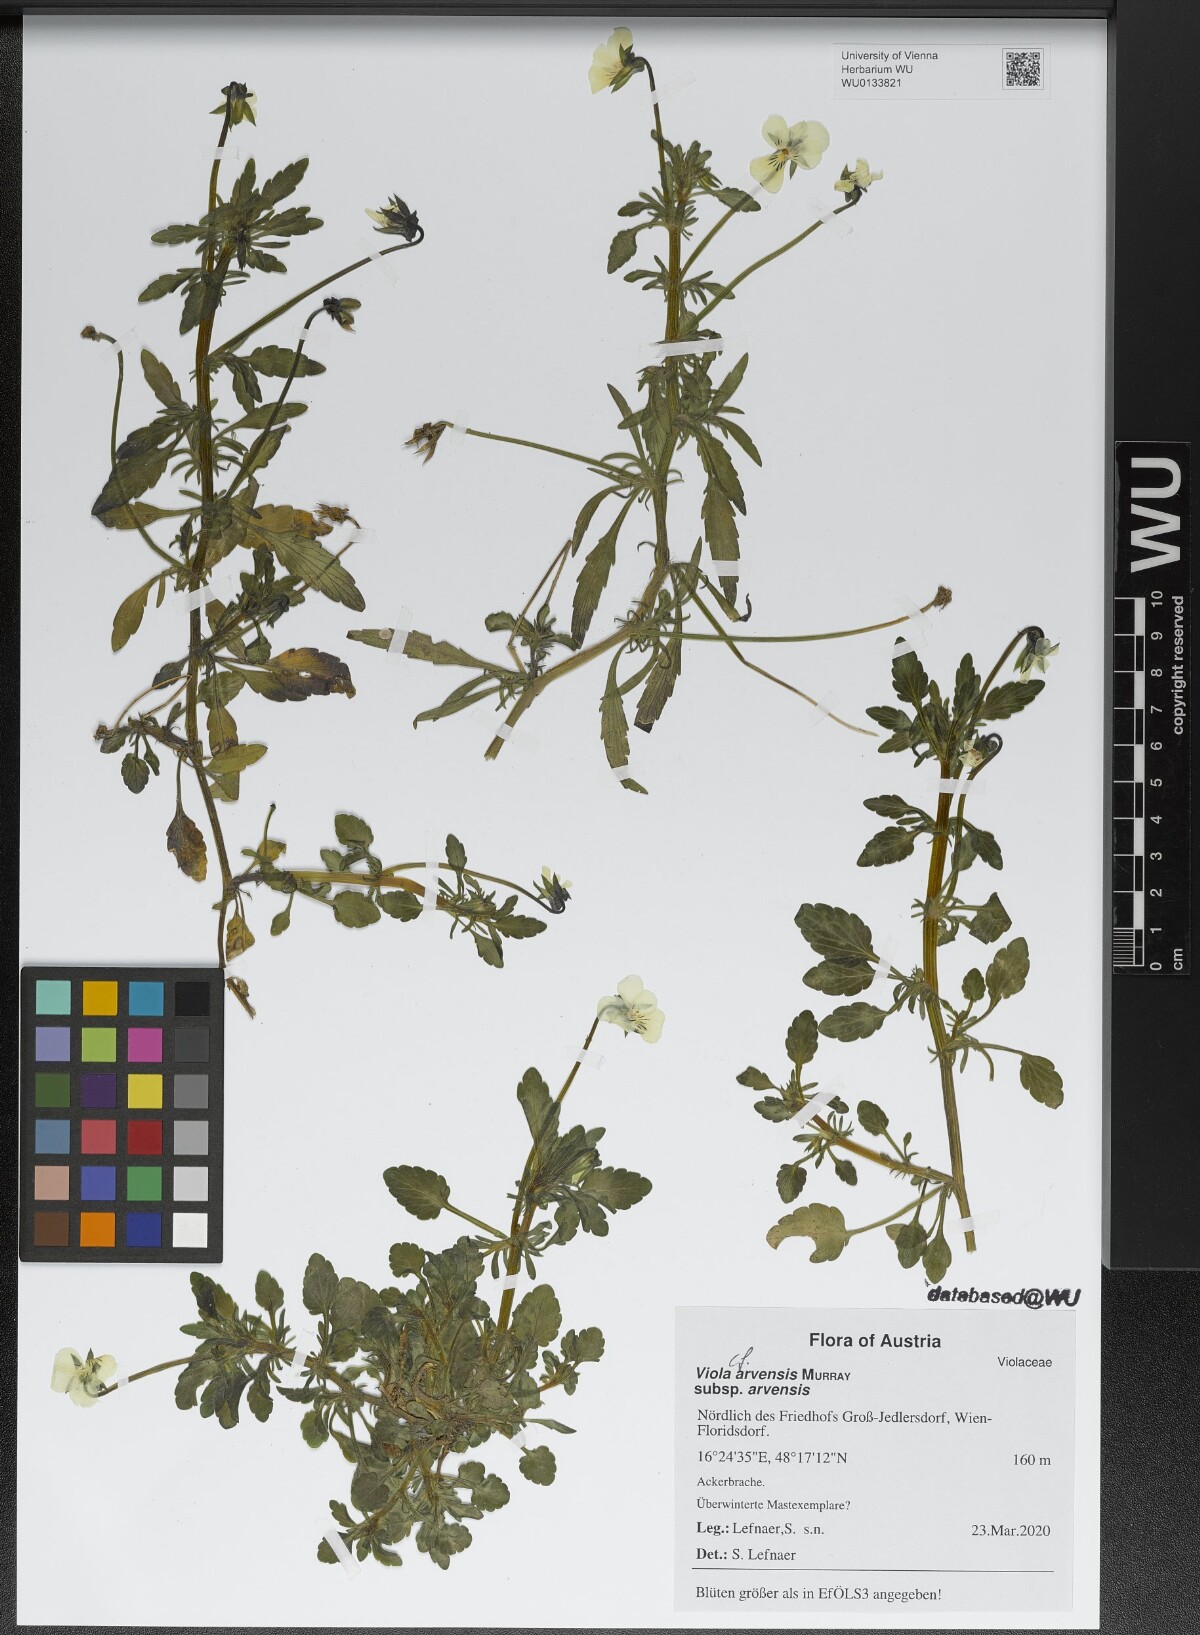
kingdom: Plantae
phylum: Tracheophyta
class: Magnoliopsida
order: Malpighiales
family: Violaceae
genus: Viola
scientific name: Viola arvensis
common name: Field pansy
